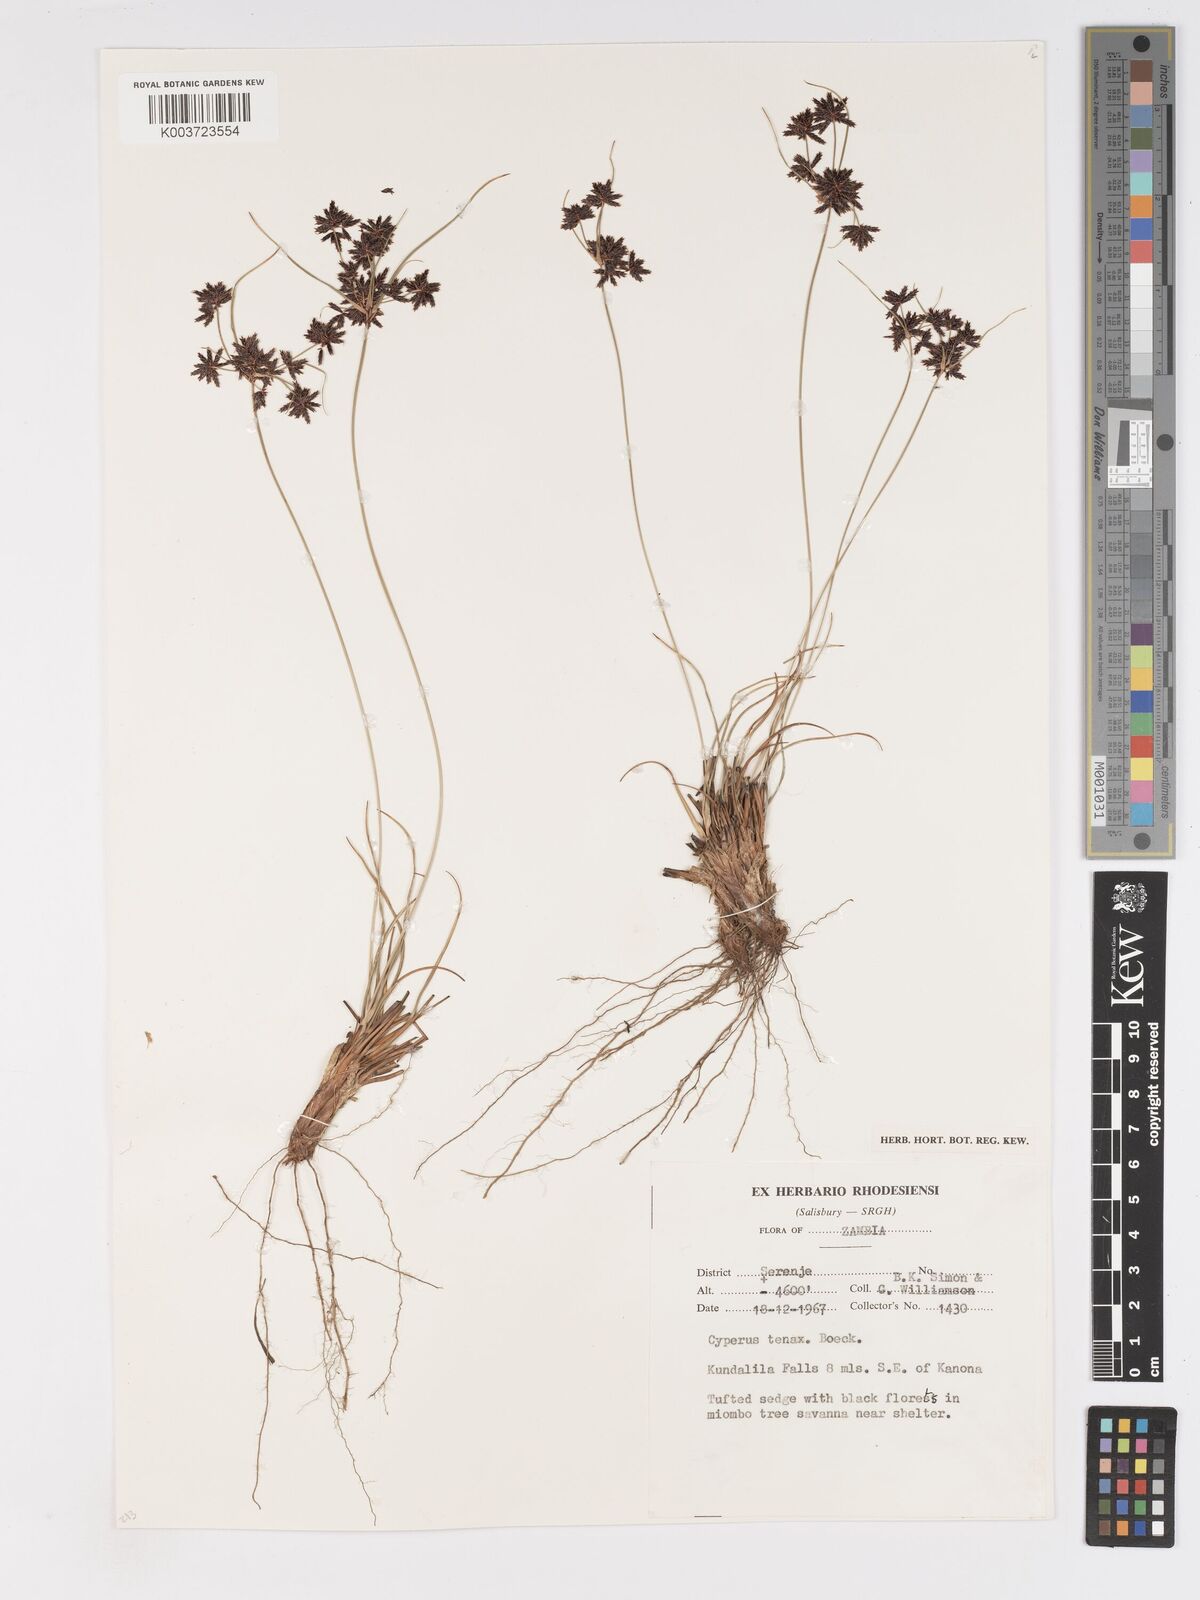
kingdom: Plantae
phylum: Tracheophyta
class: Liliopsida
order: Poales
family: Cyperaceae
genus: Cyperus
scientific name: Cyperus tenax
